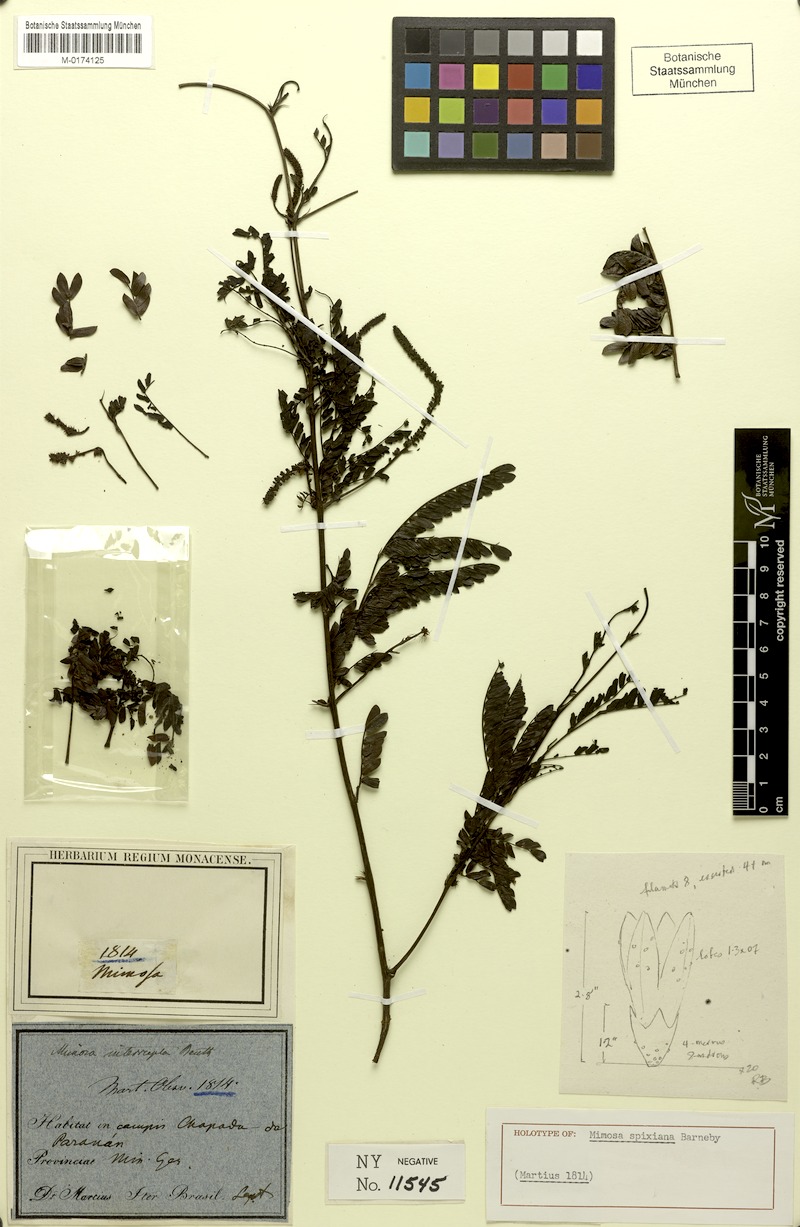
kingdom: Plantae
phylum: Tracheophyta
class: Magnoliopsida
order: Fabales
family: Fabaceae
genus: Mimosa
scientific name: Mimosa spixiana
